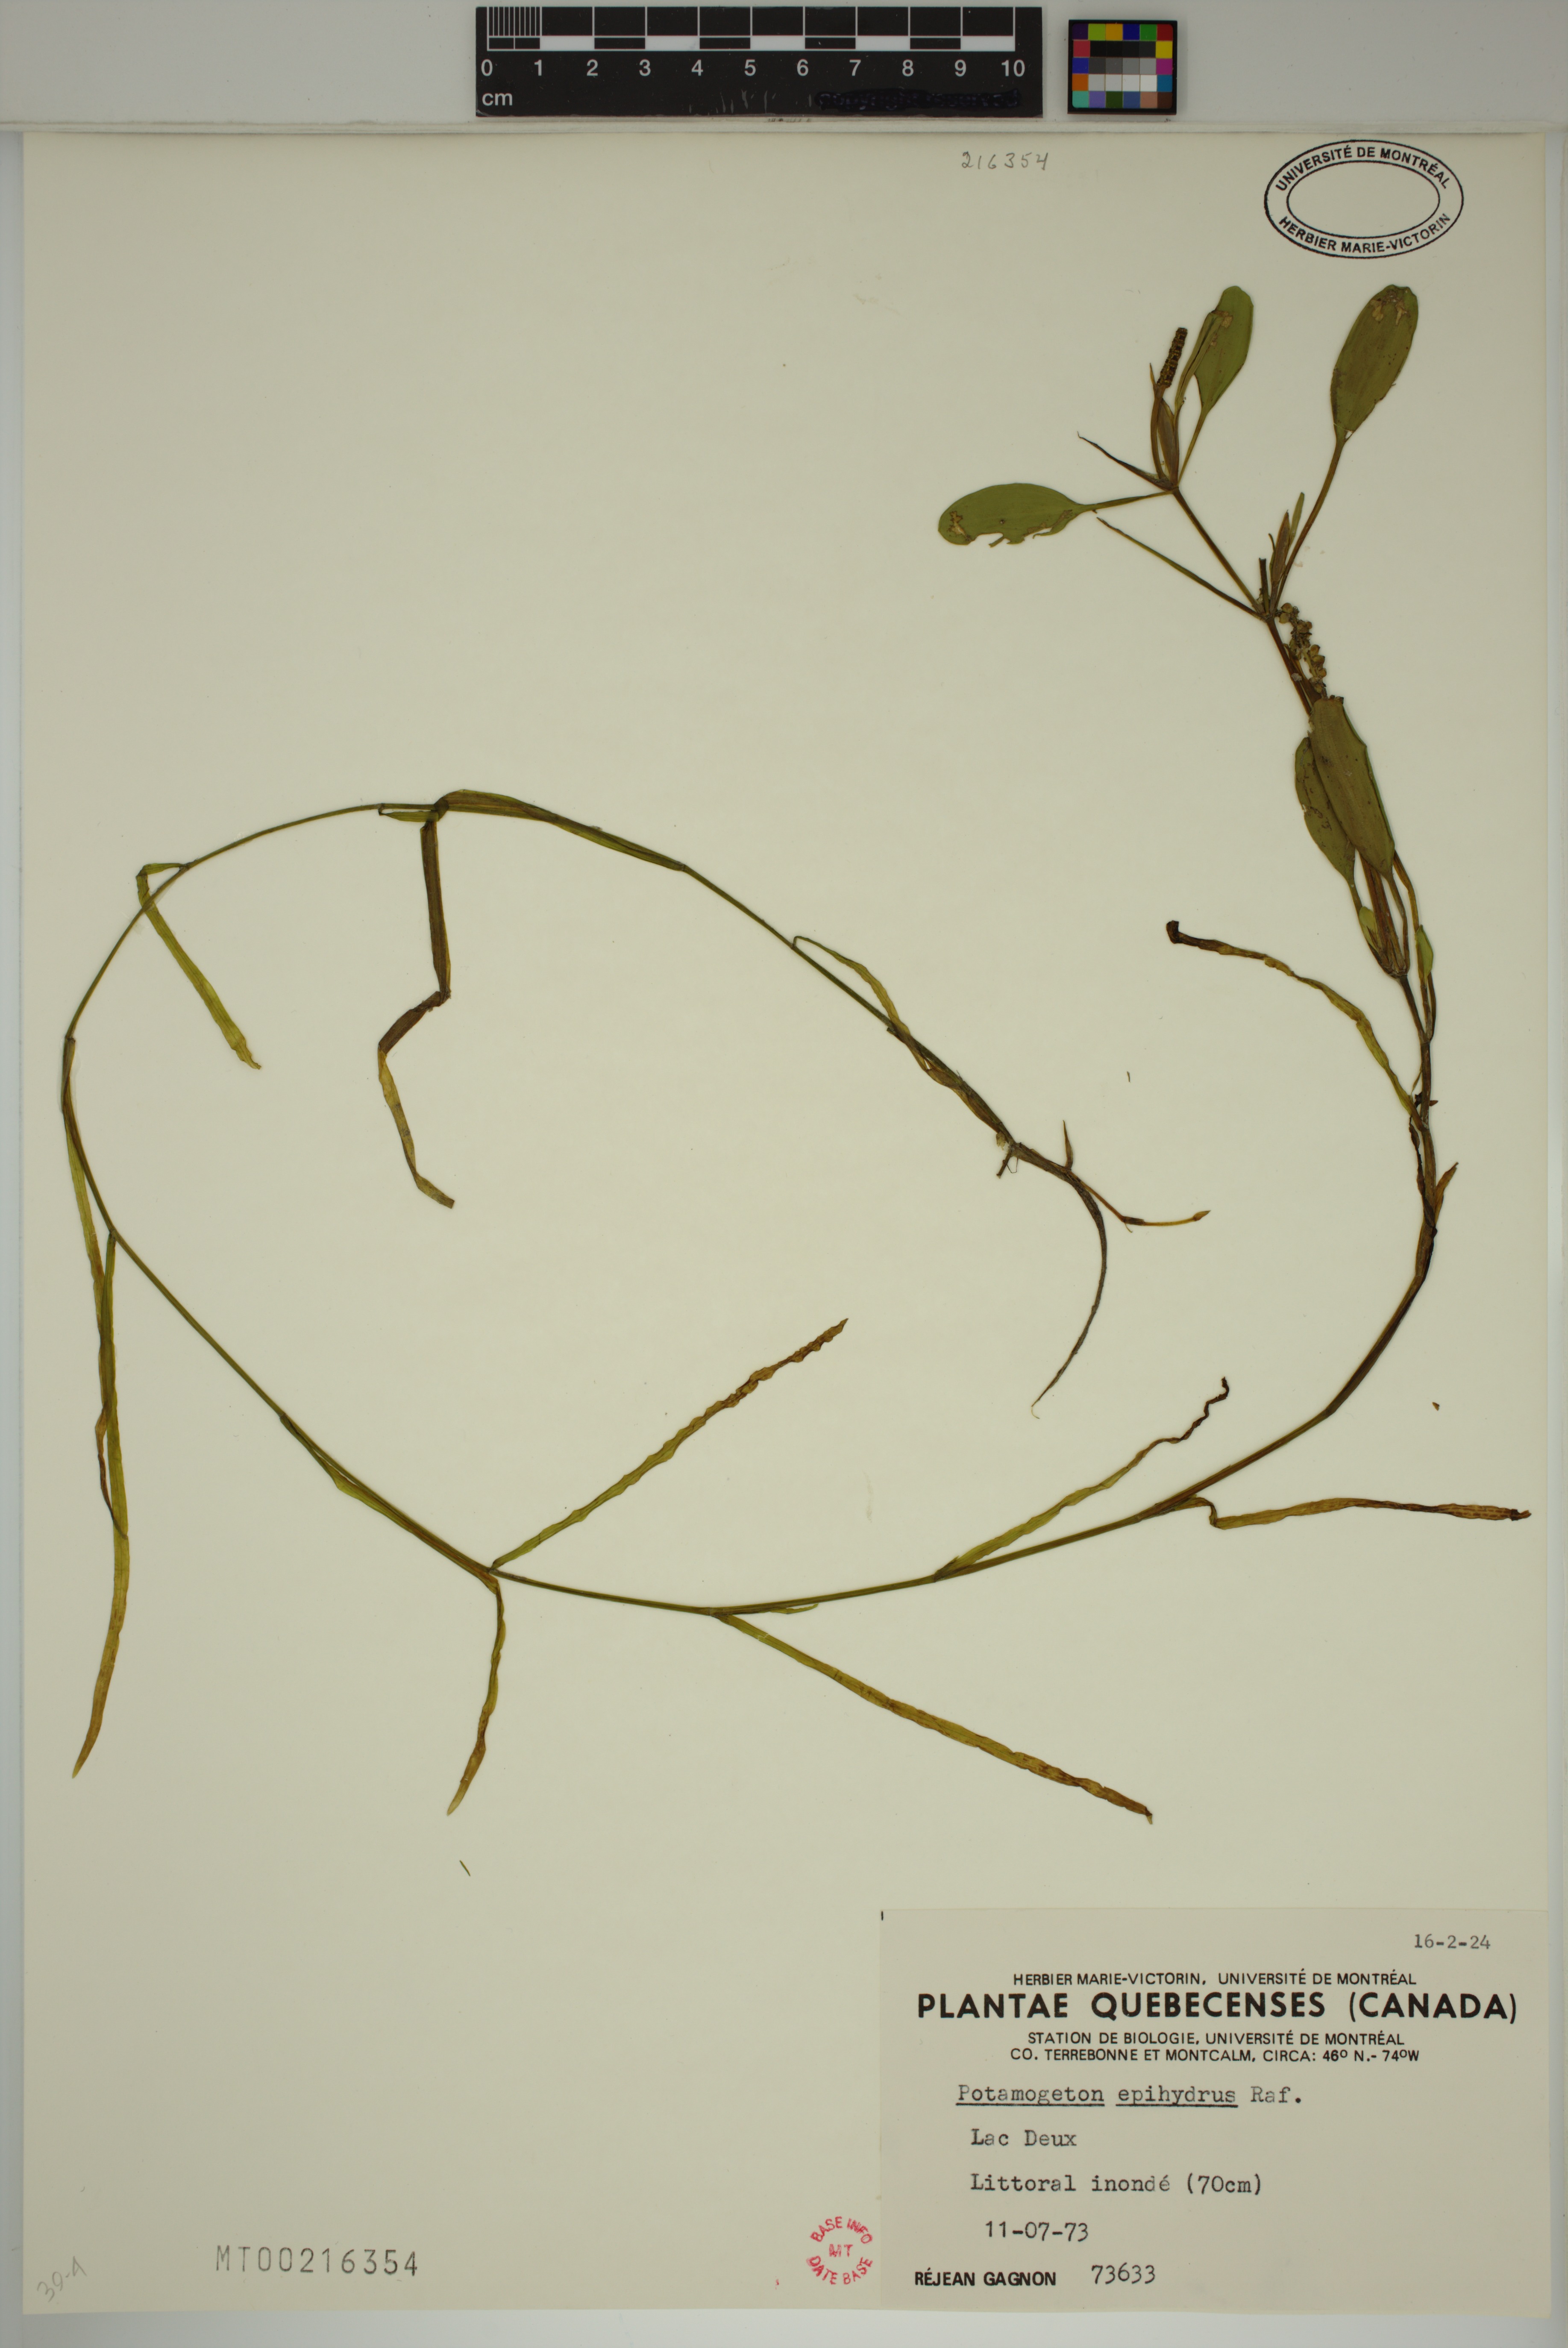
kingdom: Plantae
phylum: Tracheophyta
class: Liliopsida
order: Alismatales
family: Potamogetonaceae
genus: Potamogeton
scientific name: Potamogeton epihydrus
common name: American pondweed
